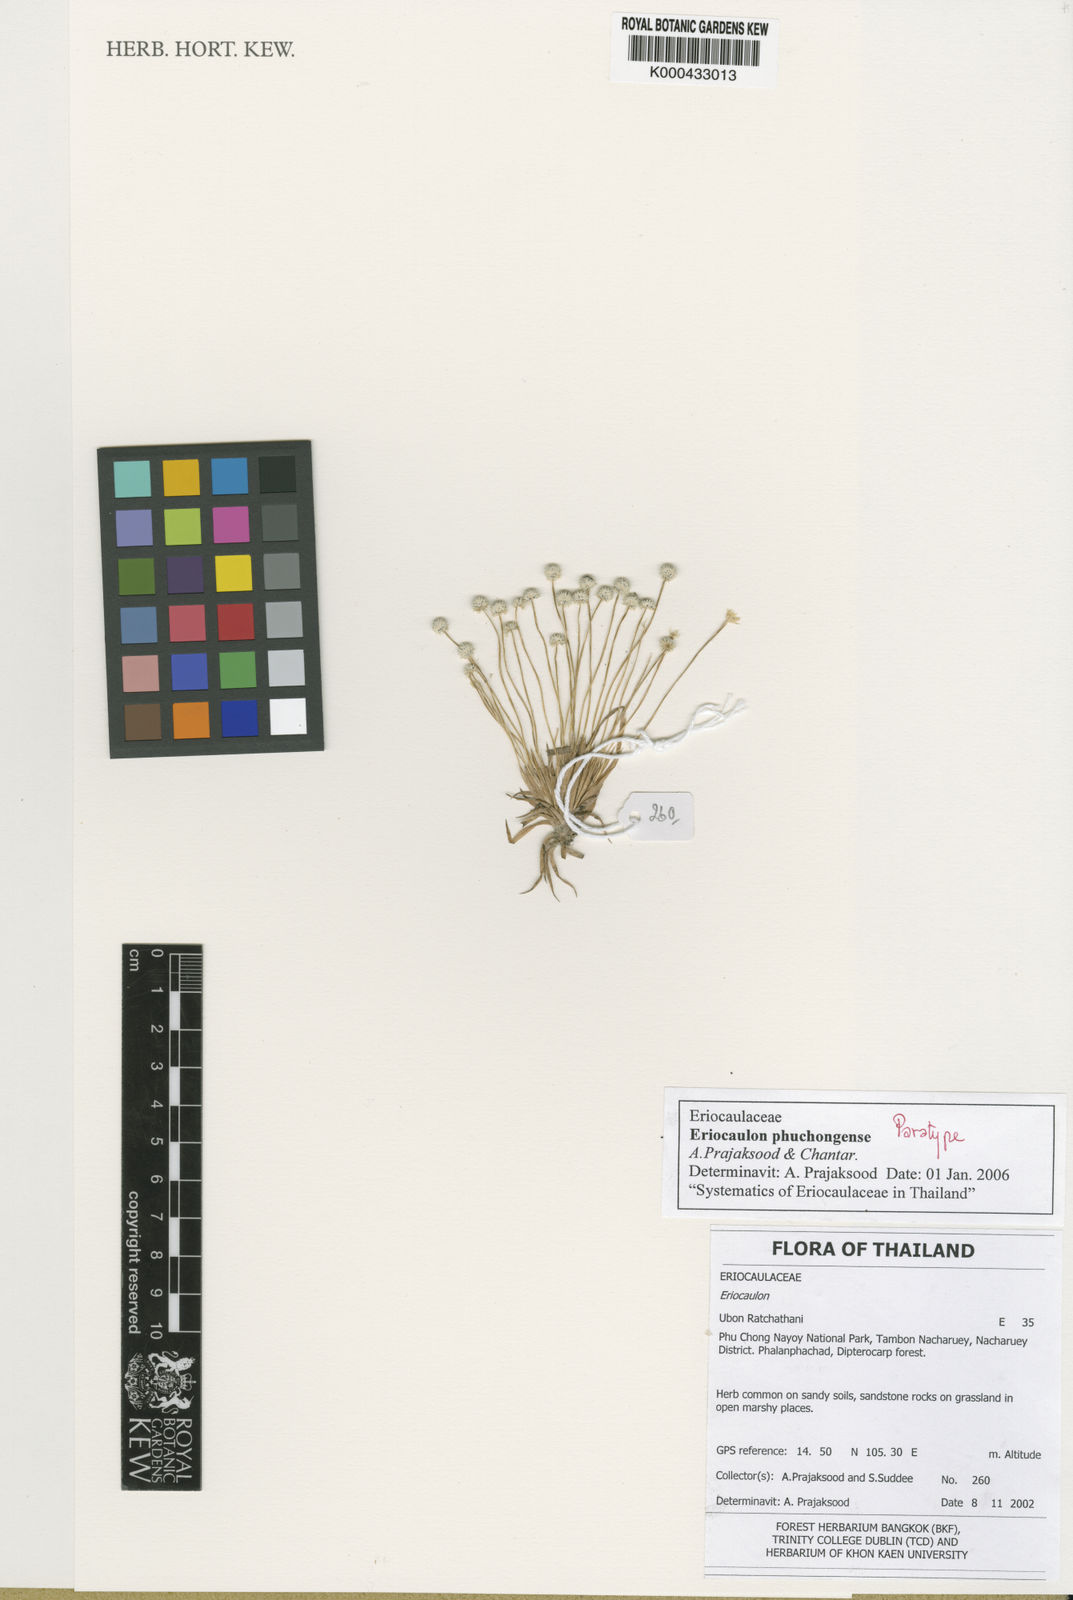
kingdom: Plantae
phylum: Tracheophyta
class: Liliopsida
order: Poales
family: Eriocaulaceae
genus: Eriocaulon
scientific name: Eriocaulon phuchongense
